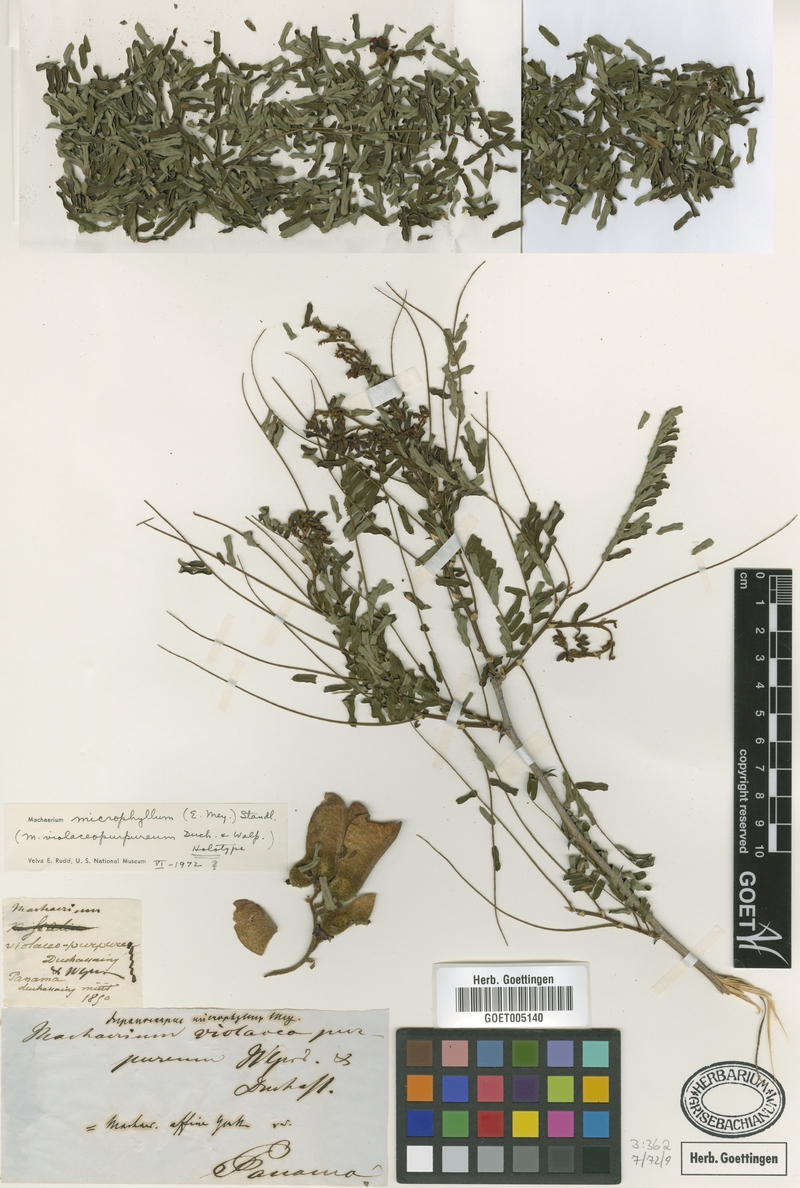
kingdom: Plantae
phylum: Tracheophyta
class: Magnoliopsida
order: Fabales
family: Fabaceae
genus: Machaerium
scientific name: Machaerium isadelphum
